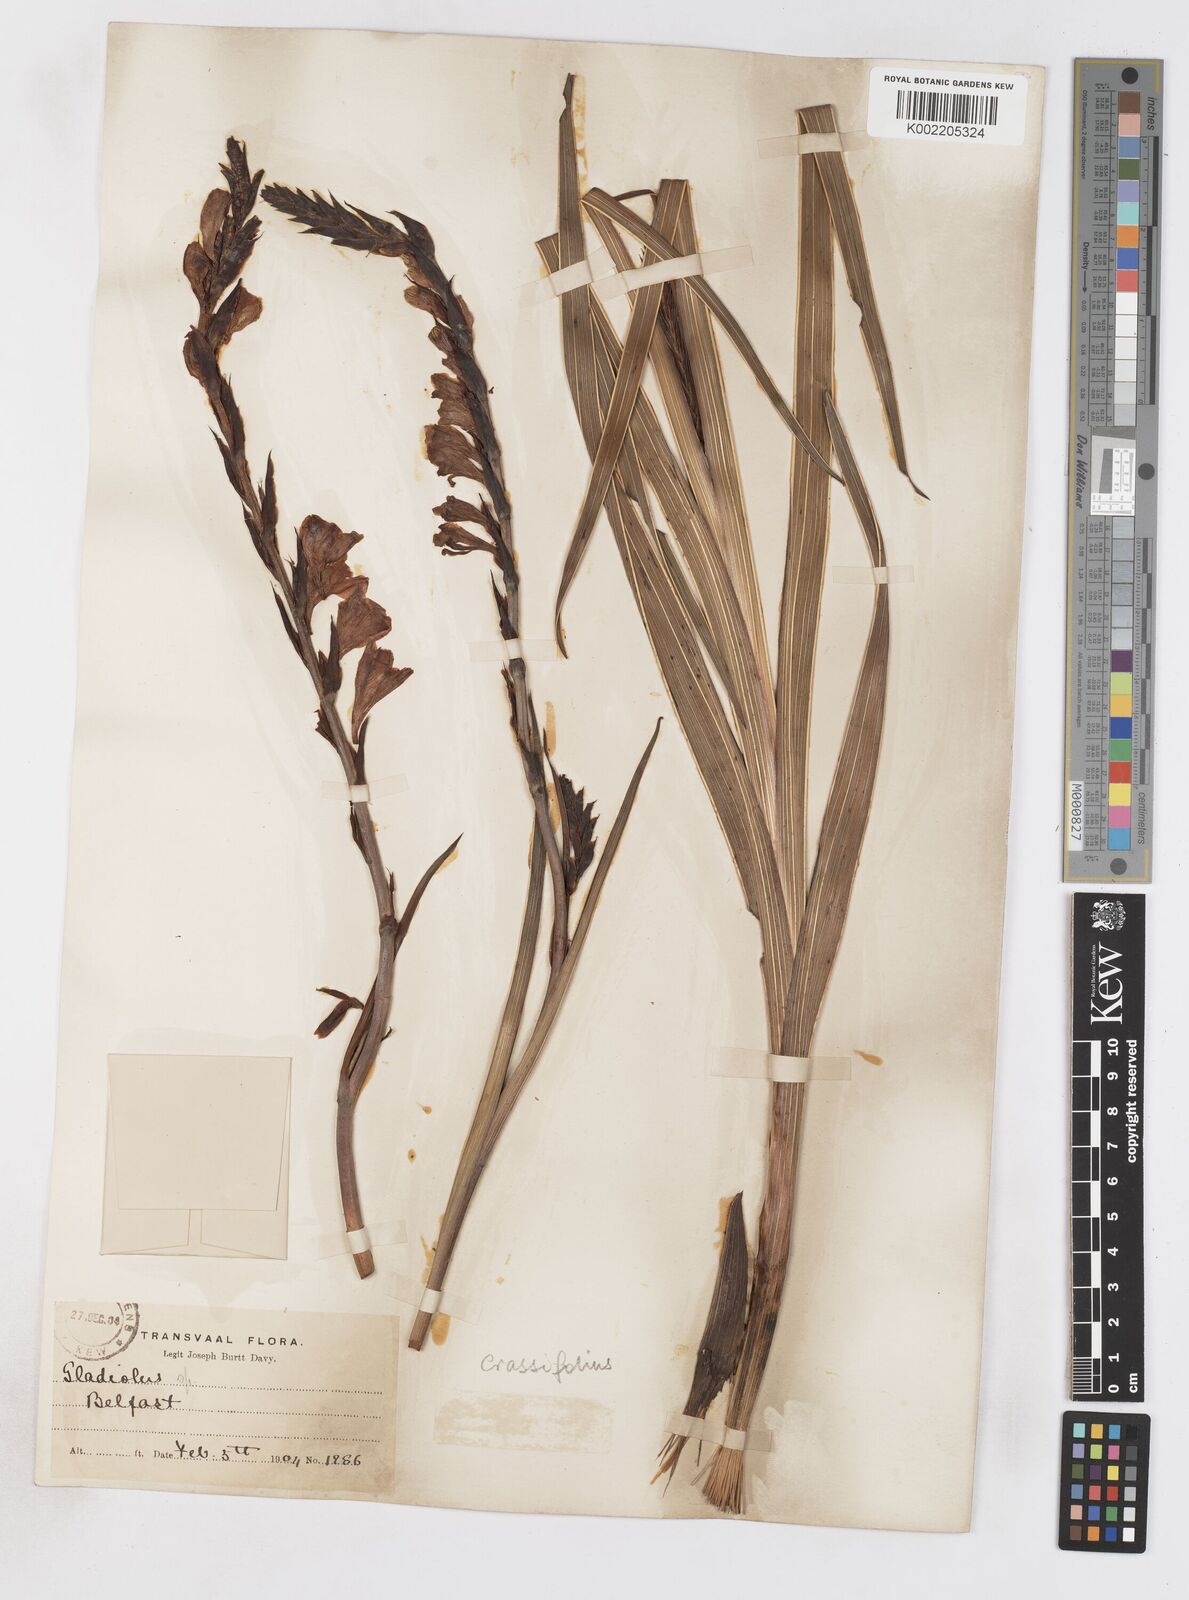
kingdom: Plantae
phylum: Tracheophyta
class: Liliopsida
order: Asparagales
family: Iridaceae
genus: Gladiolus
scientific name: Gladiolus crassifolius
